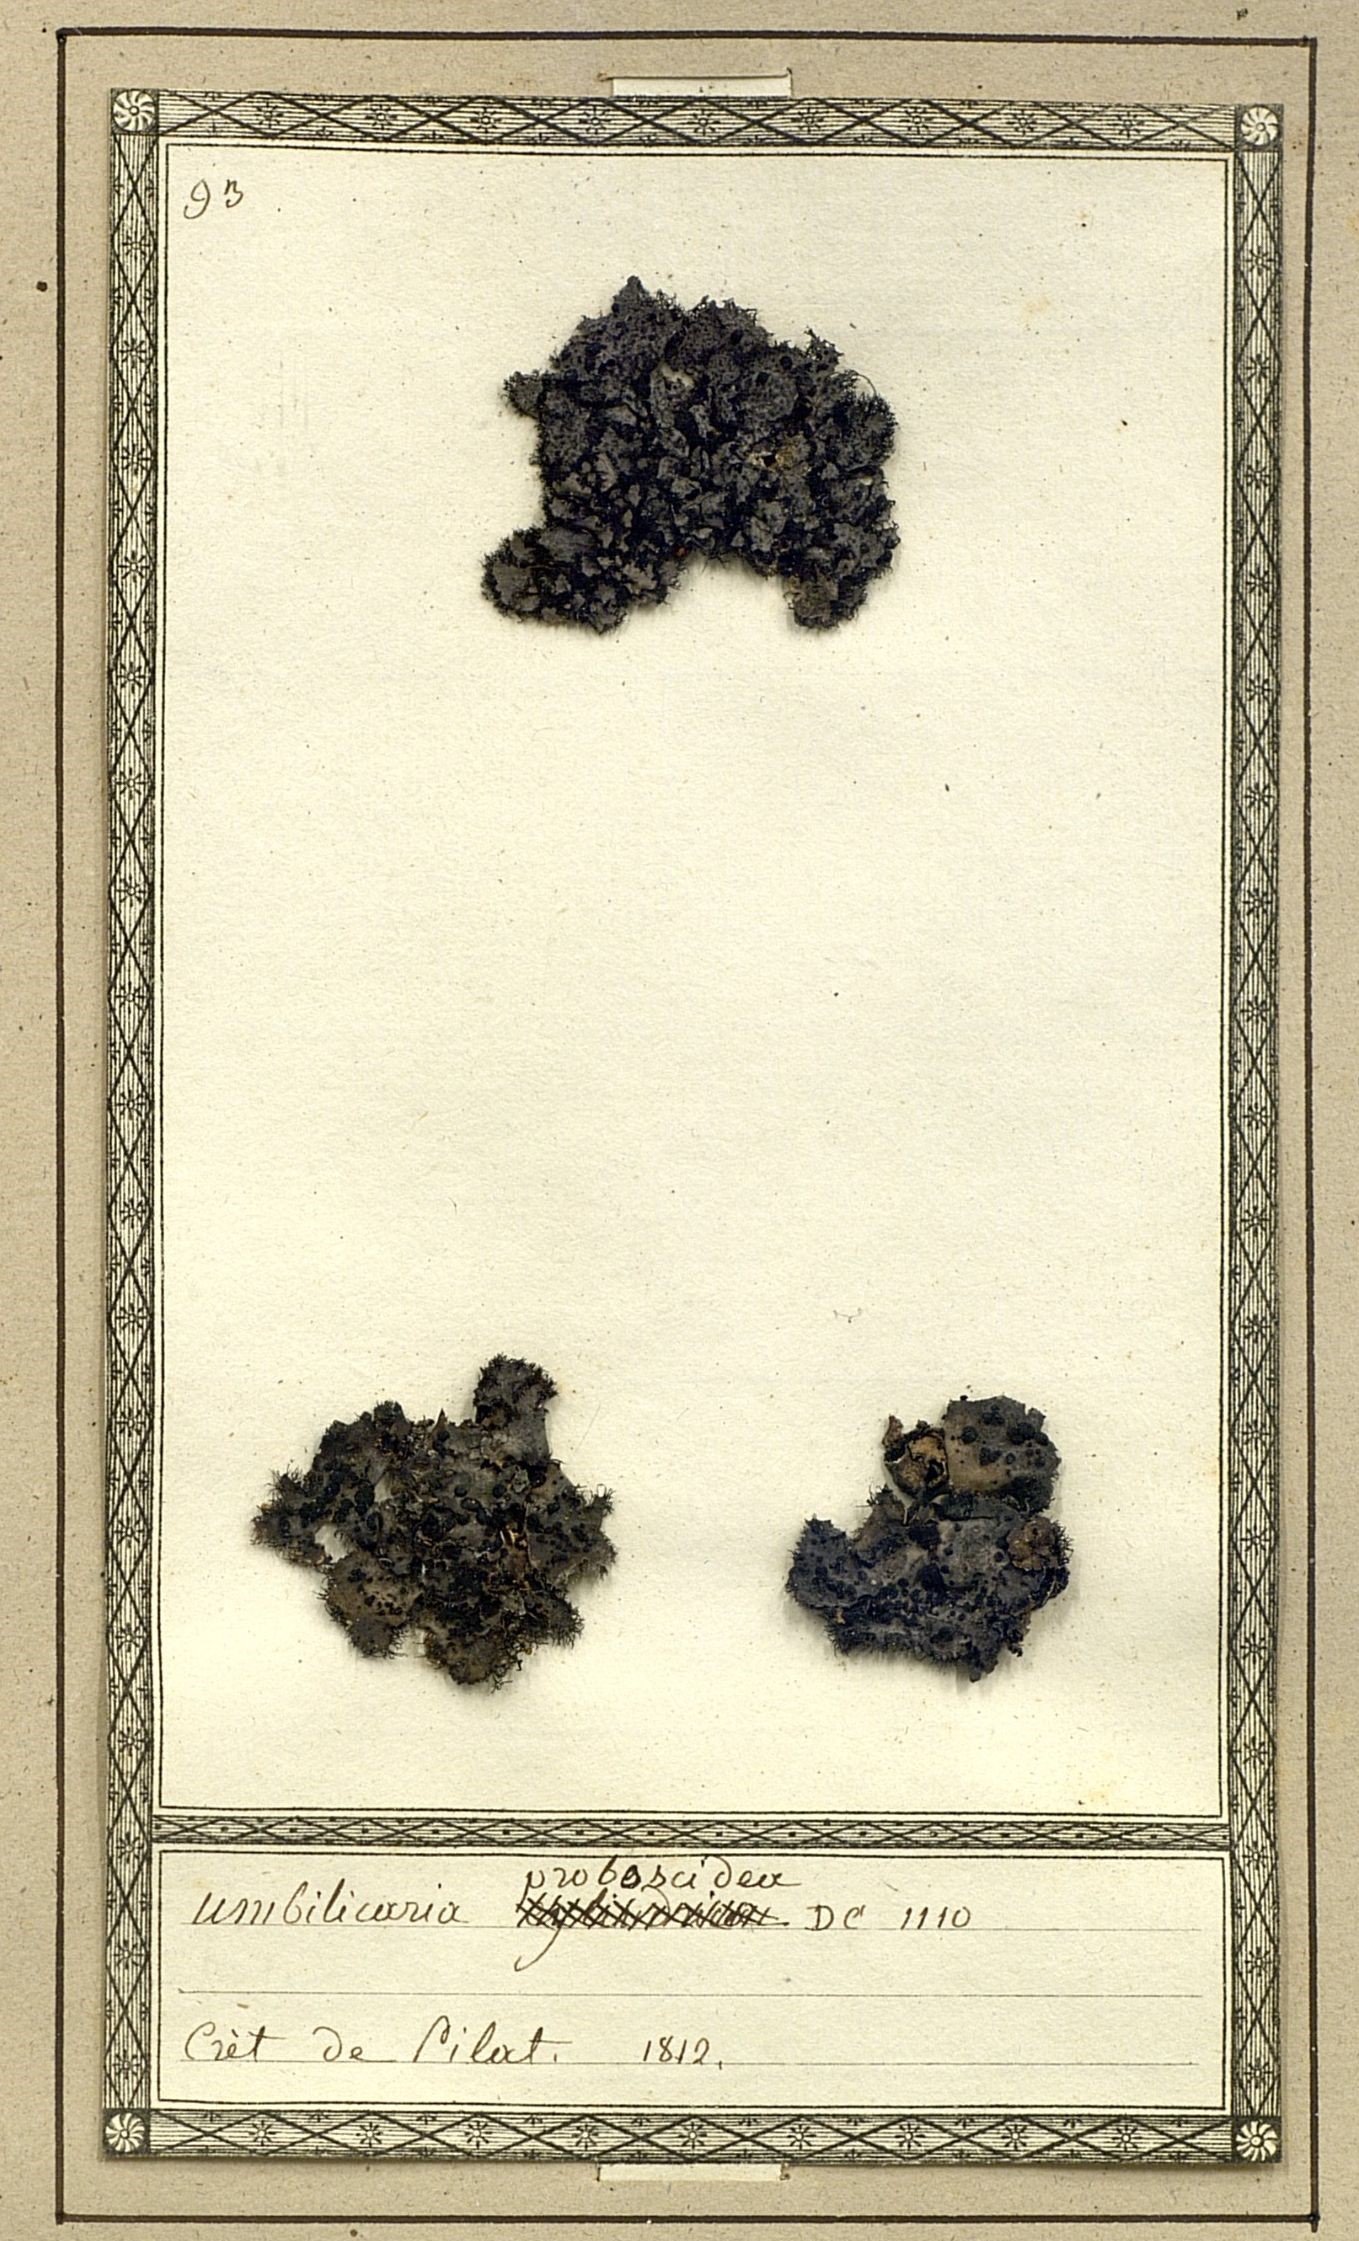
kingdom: Fungi
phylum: Ascomycota
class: Lecanoromycetes
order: Umbilicariales
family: Umbilicariaceae
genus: Umbilicaria
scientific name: Umbilicaria proboscidea
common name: Greater salted rocktripe lichen
